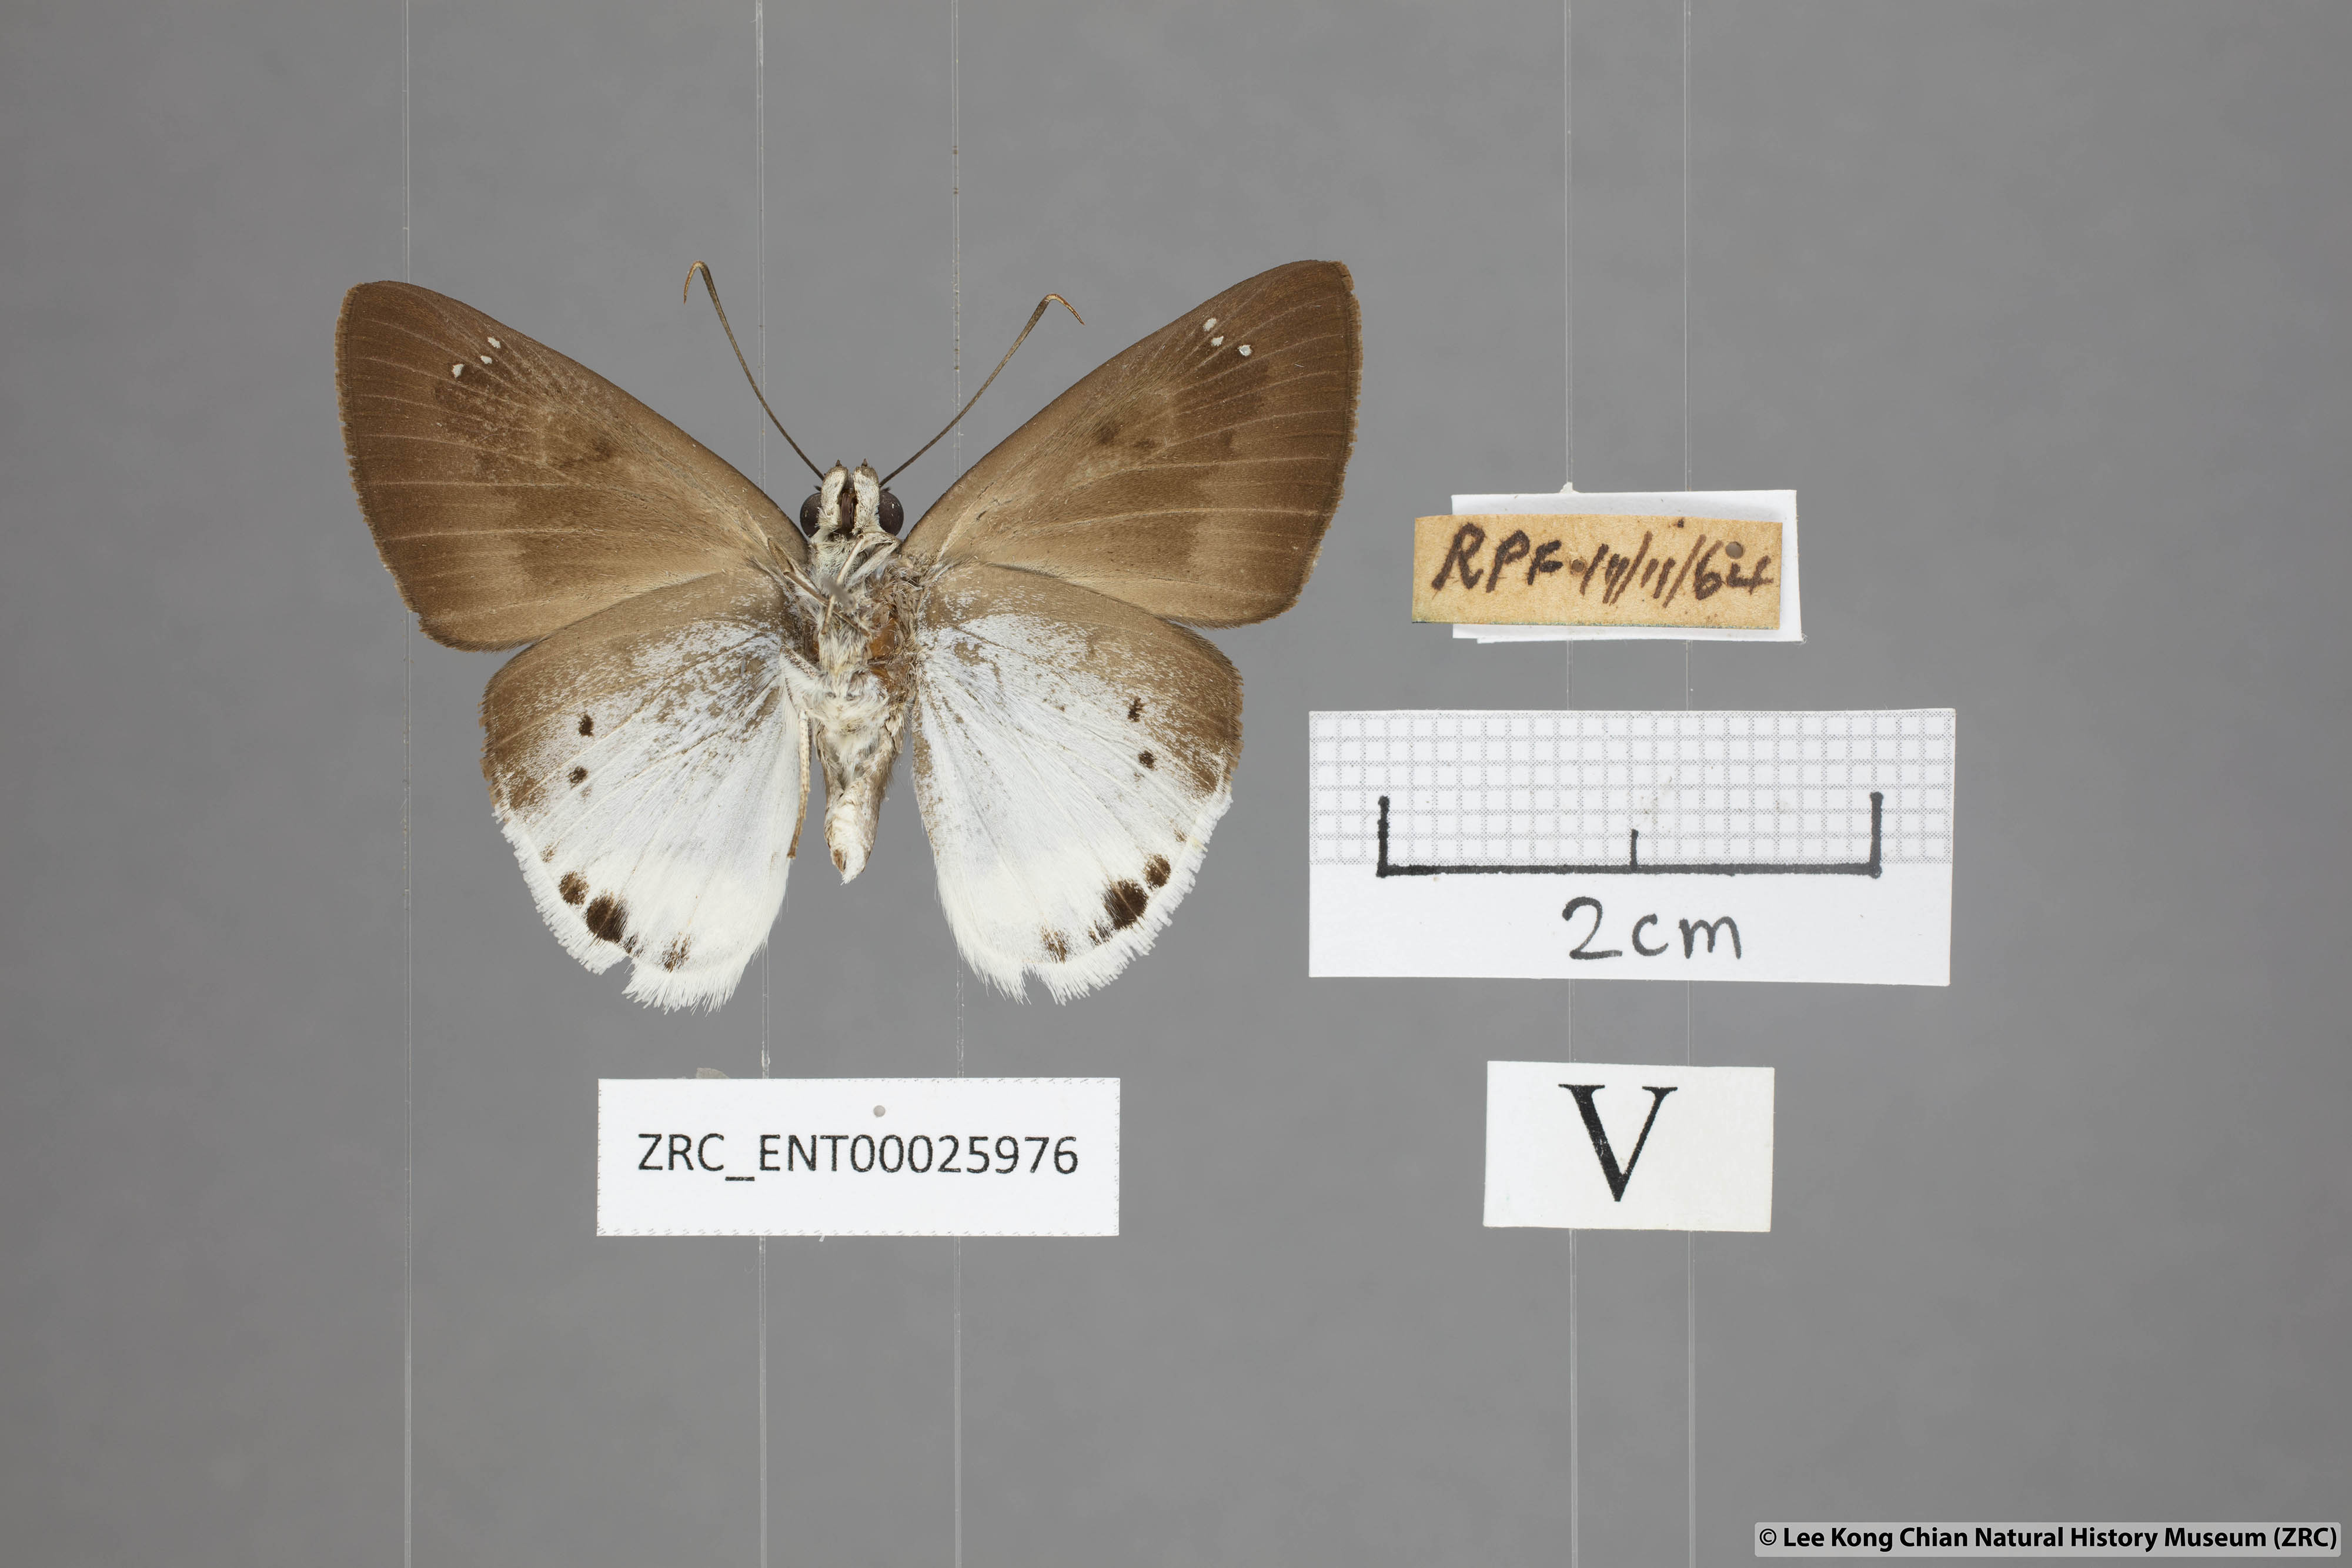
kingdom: Animalia
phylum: Arthropoda
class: Insecta
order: Lepidoptera
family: Hesperiidae
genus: Tagiades
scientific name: Tagiades gana
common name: Suffused snow flat
